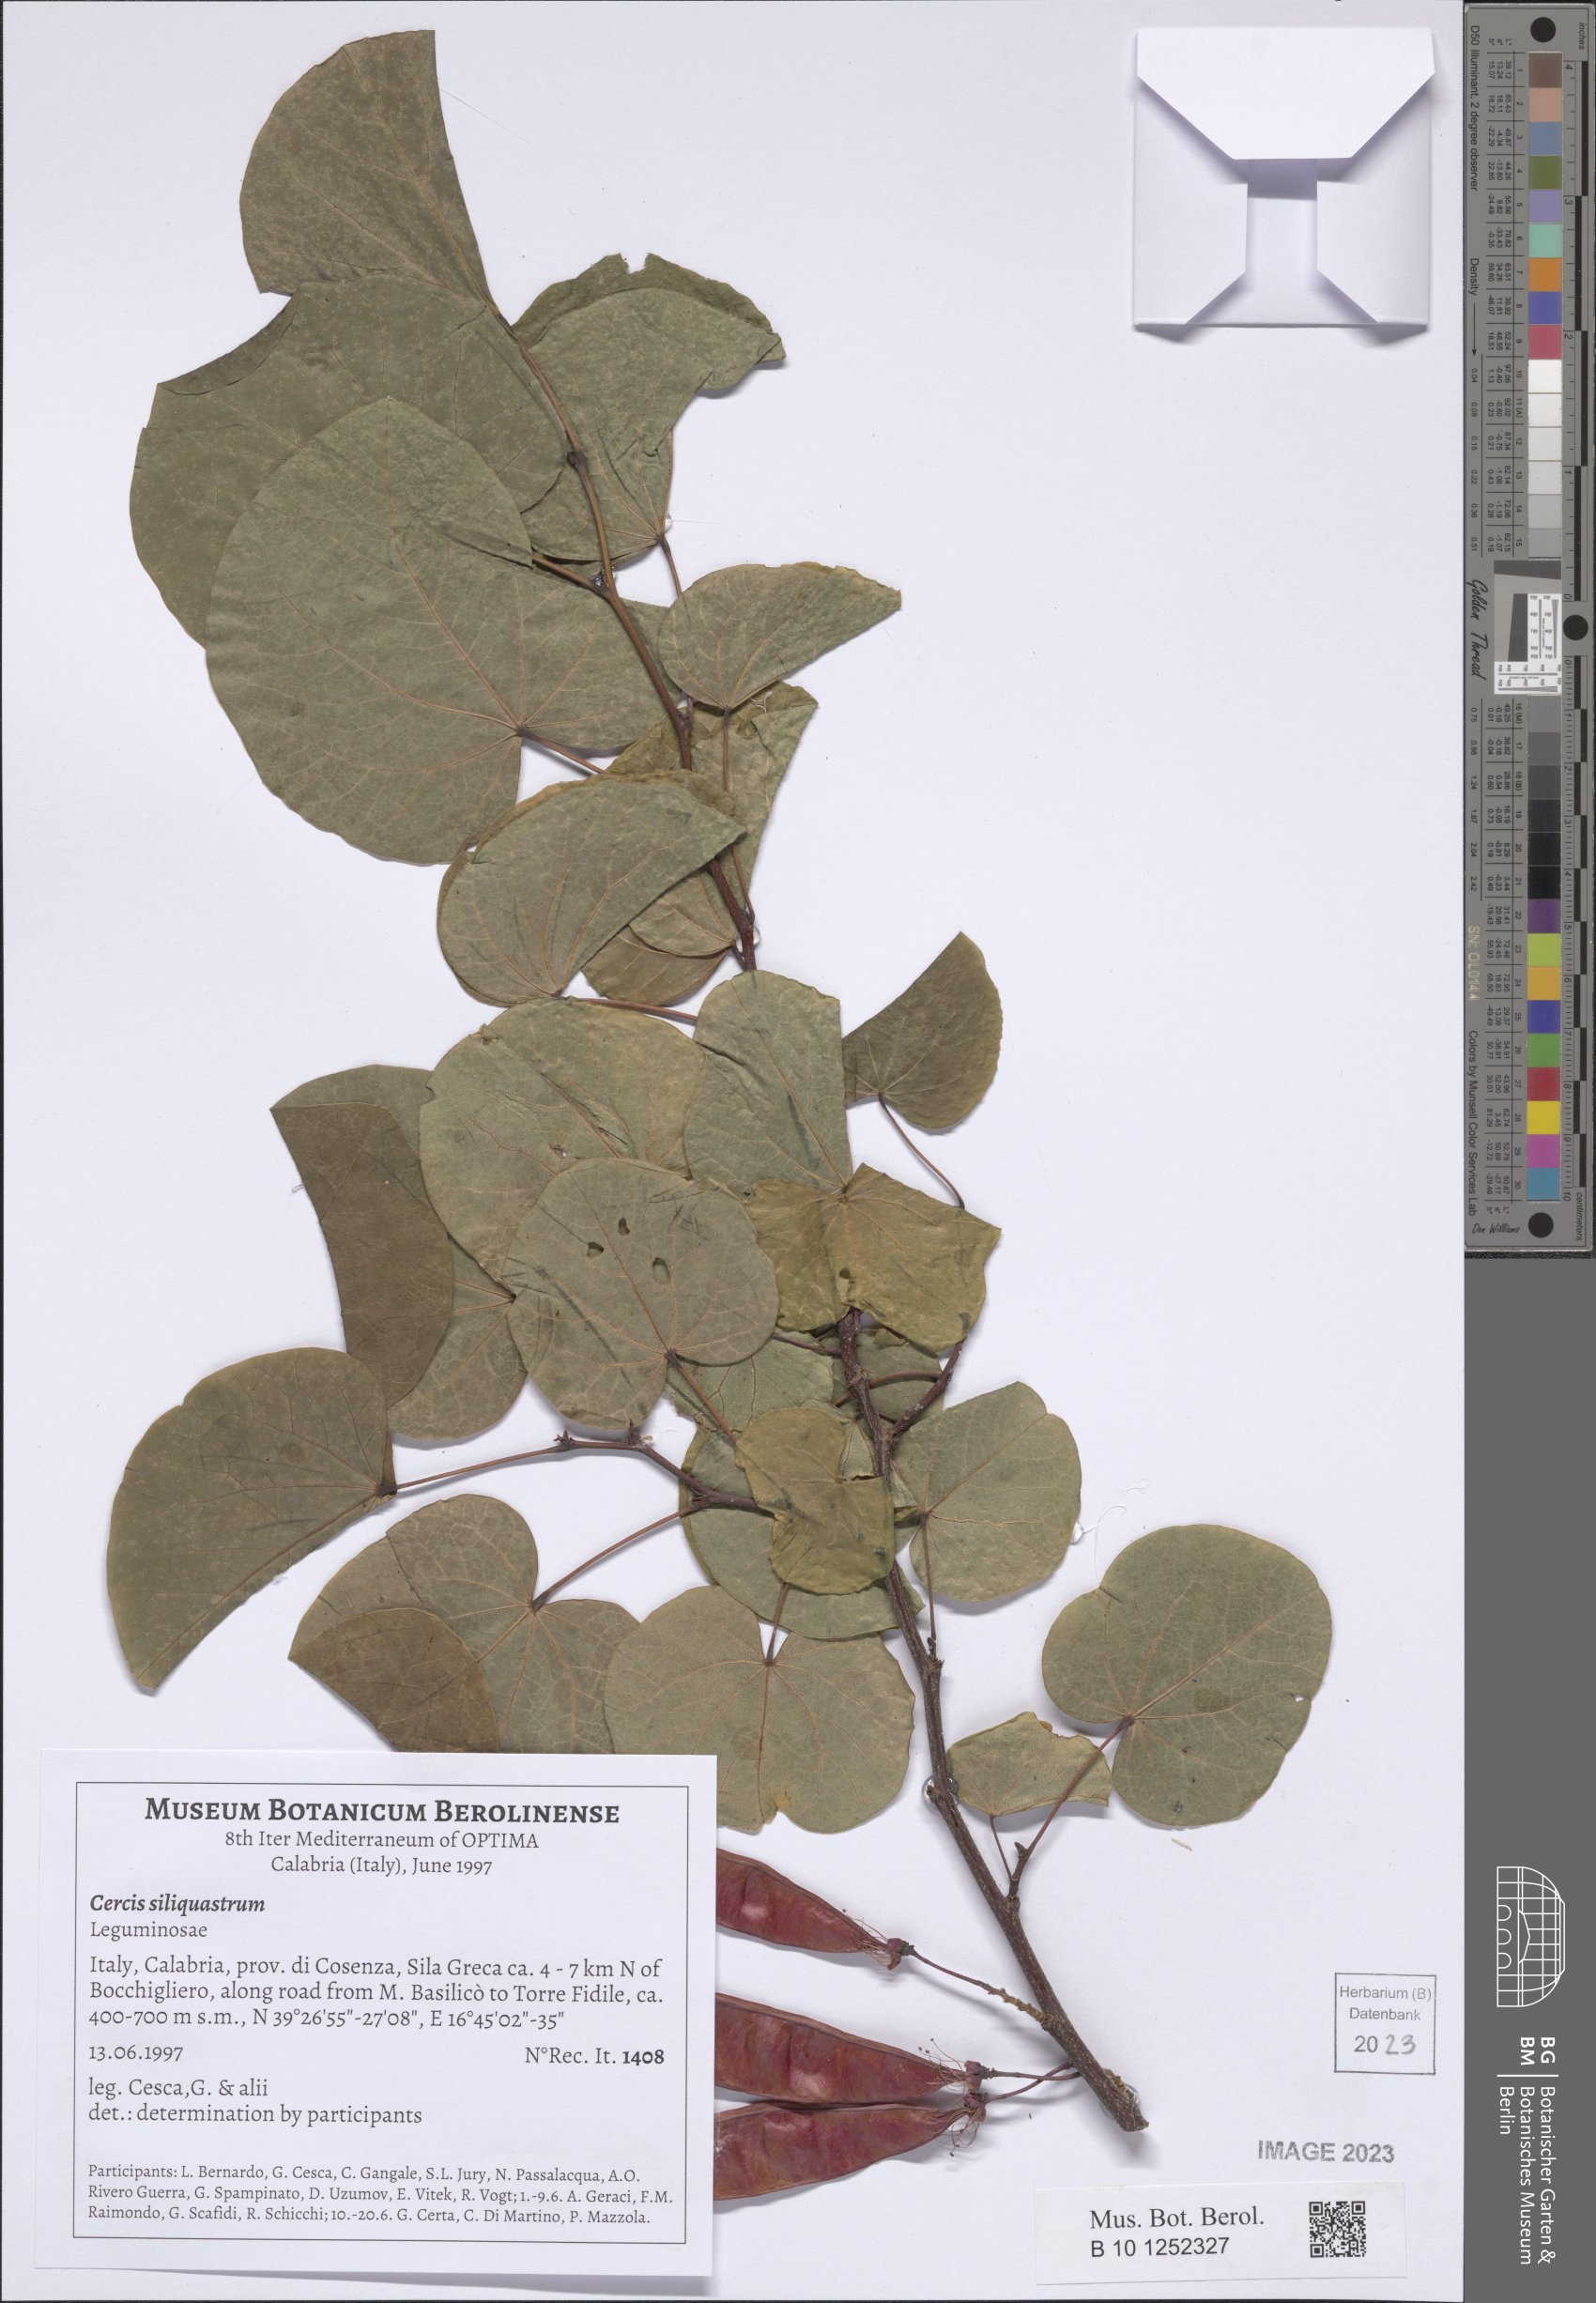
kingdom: Plantae
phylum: Tracheophyta
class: Magnoliopsida
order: Fabales
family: Fabaceae
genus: Cercis
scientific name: Cercis siliquastrum
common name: Judas tree
